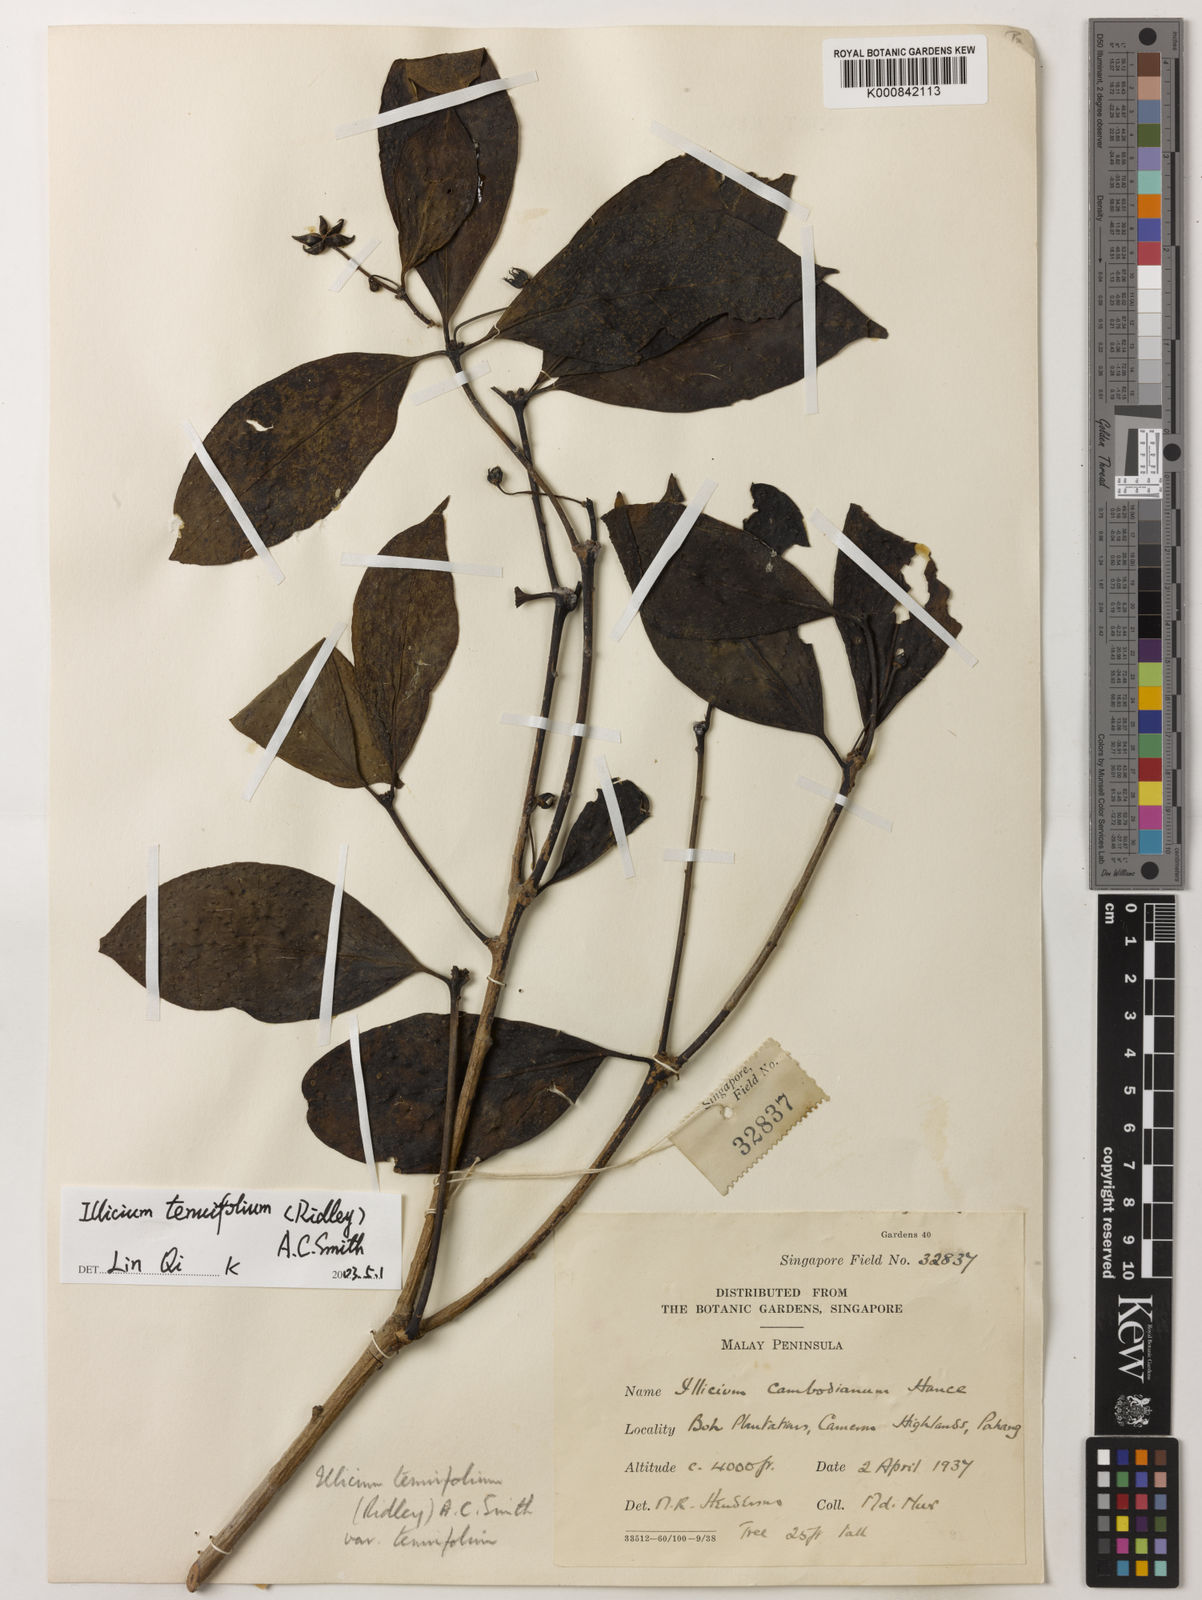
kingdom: Plantae
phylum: Tracheophyta
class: Magnoliopsida
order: Austrobaileyales
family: Schisandraceae
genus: Illicium
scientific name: Illicium tenuifolium
